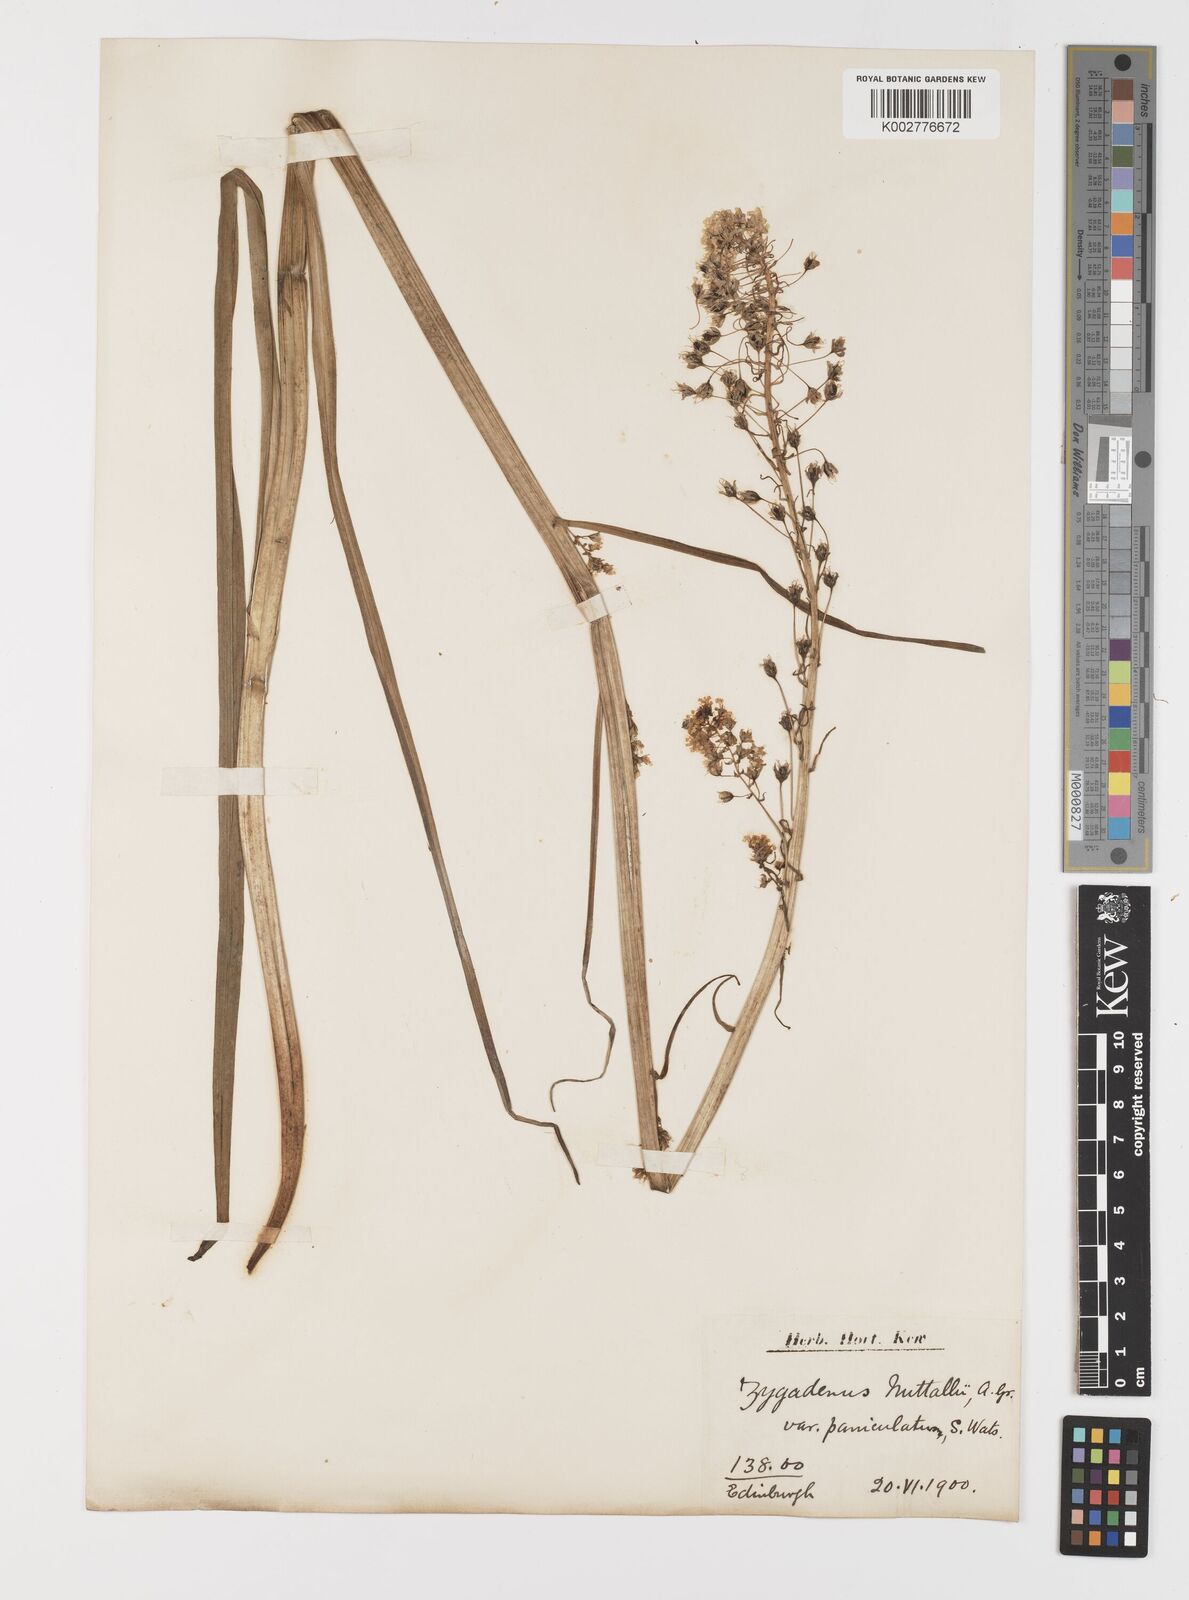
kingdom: Plantae
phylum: Tracheophyta
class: Liliopsida
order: Liliales
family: Melanthiaceae
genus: Toxicoscordion
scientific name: Toxicoscordion nuttallii
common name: Poison sego
